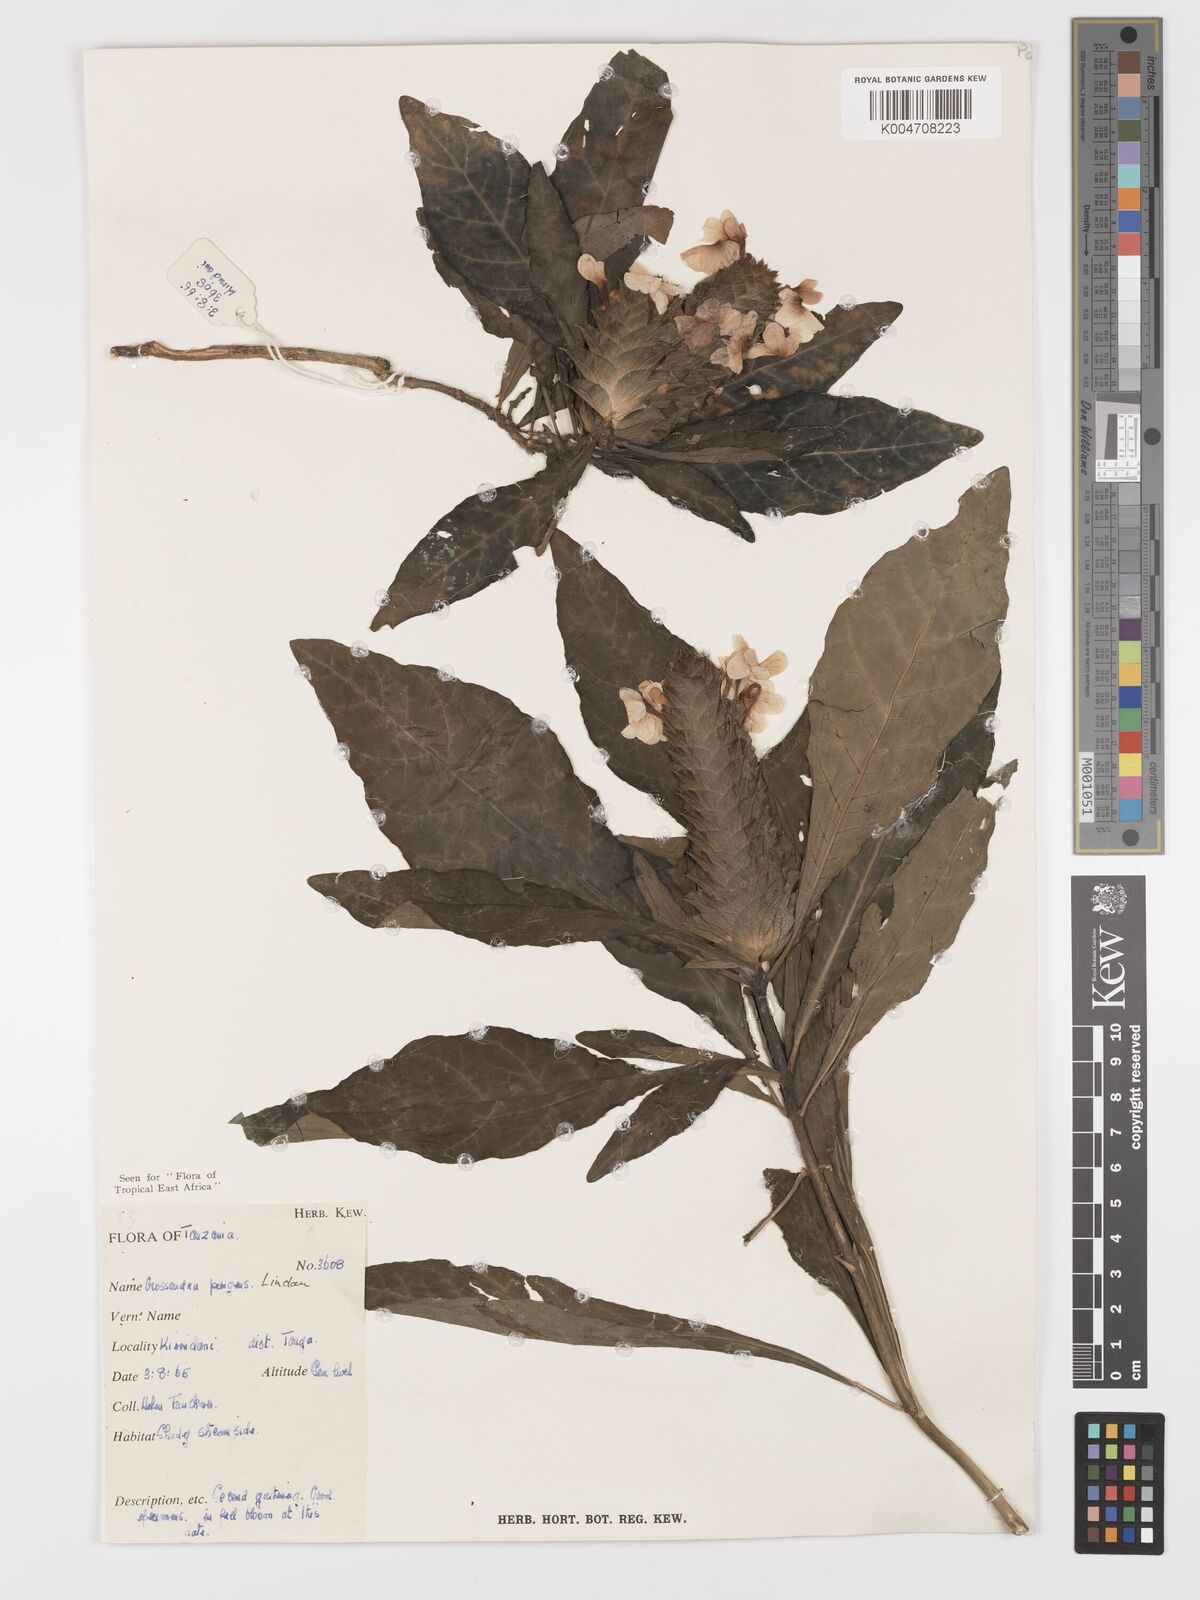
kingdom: Plantae
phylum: Tracheophyta
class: Magnoliopsida
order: Lamiales
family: Acanthaceae
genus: Crossandra
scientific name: Crossandra pungens
